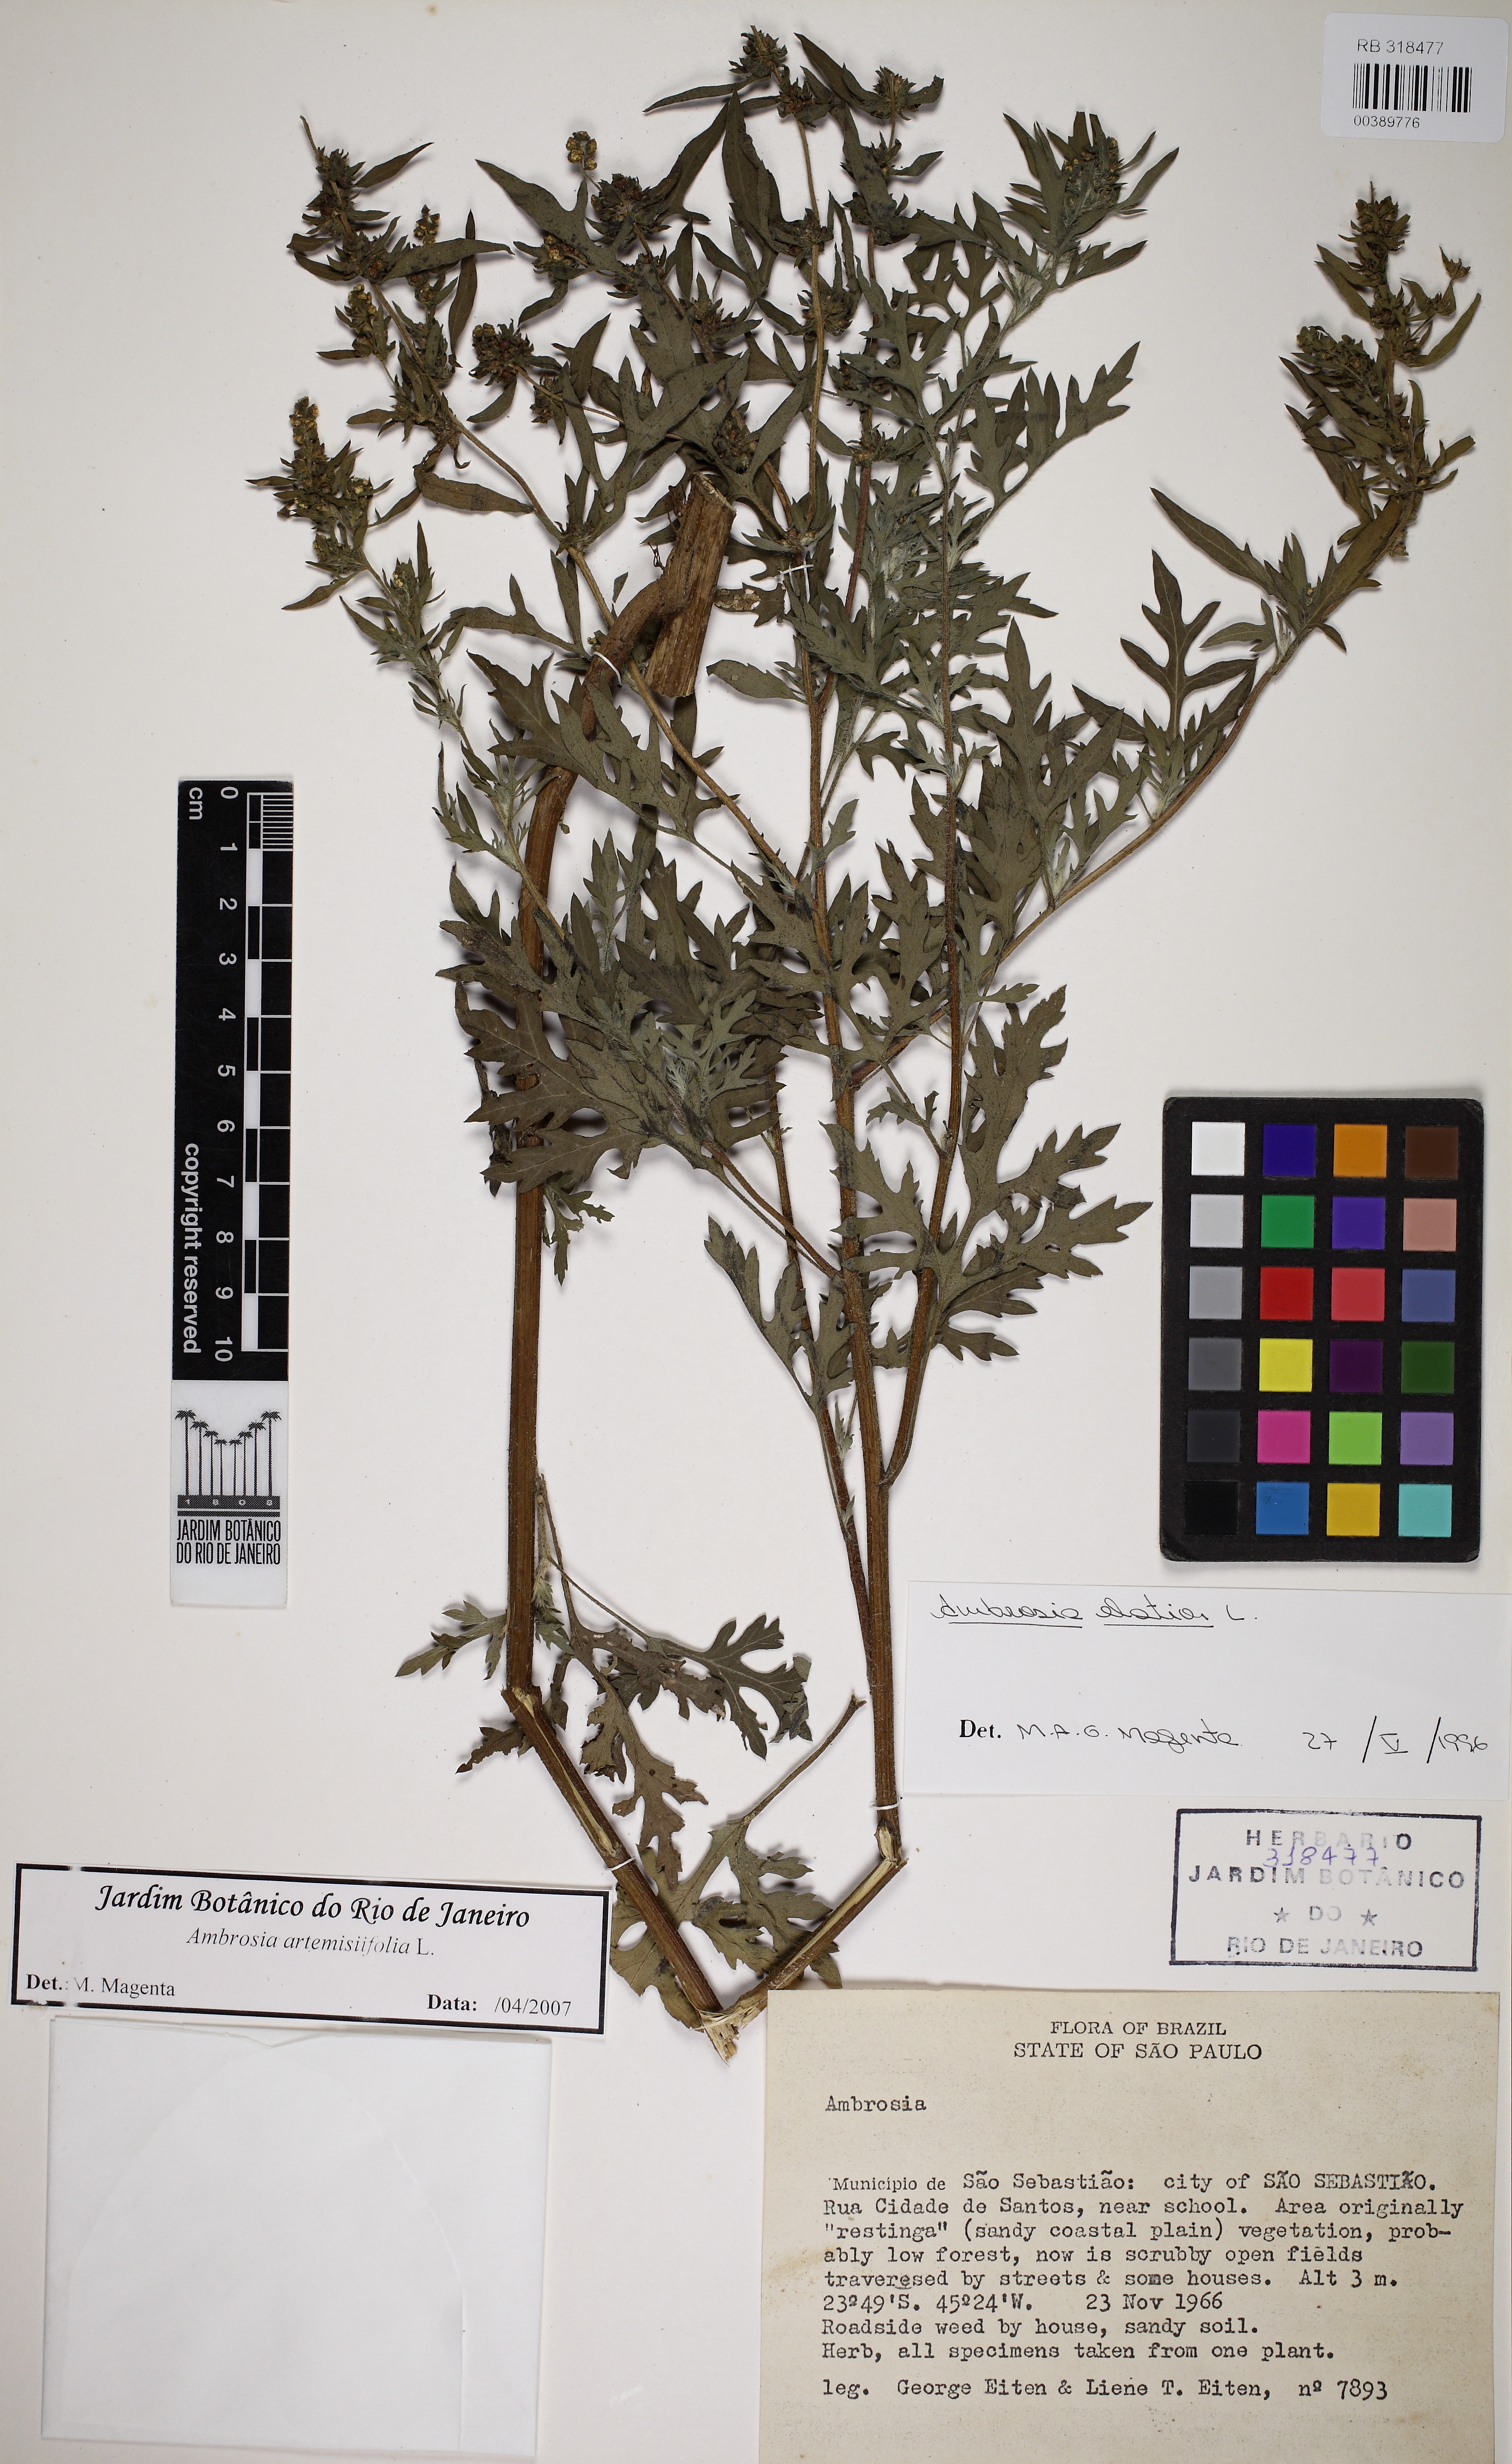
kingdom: Plantae
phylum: Tracheophyta
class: Magnoliopsida
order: Asterales
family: Asteraceae
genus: Ambrosia
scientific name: Ambrosia artemisiifolia
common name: Annual ragweed
